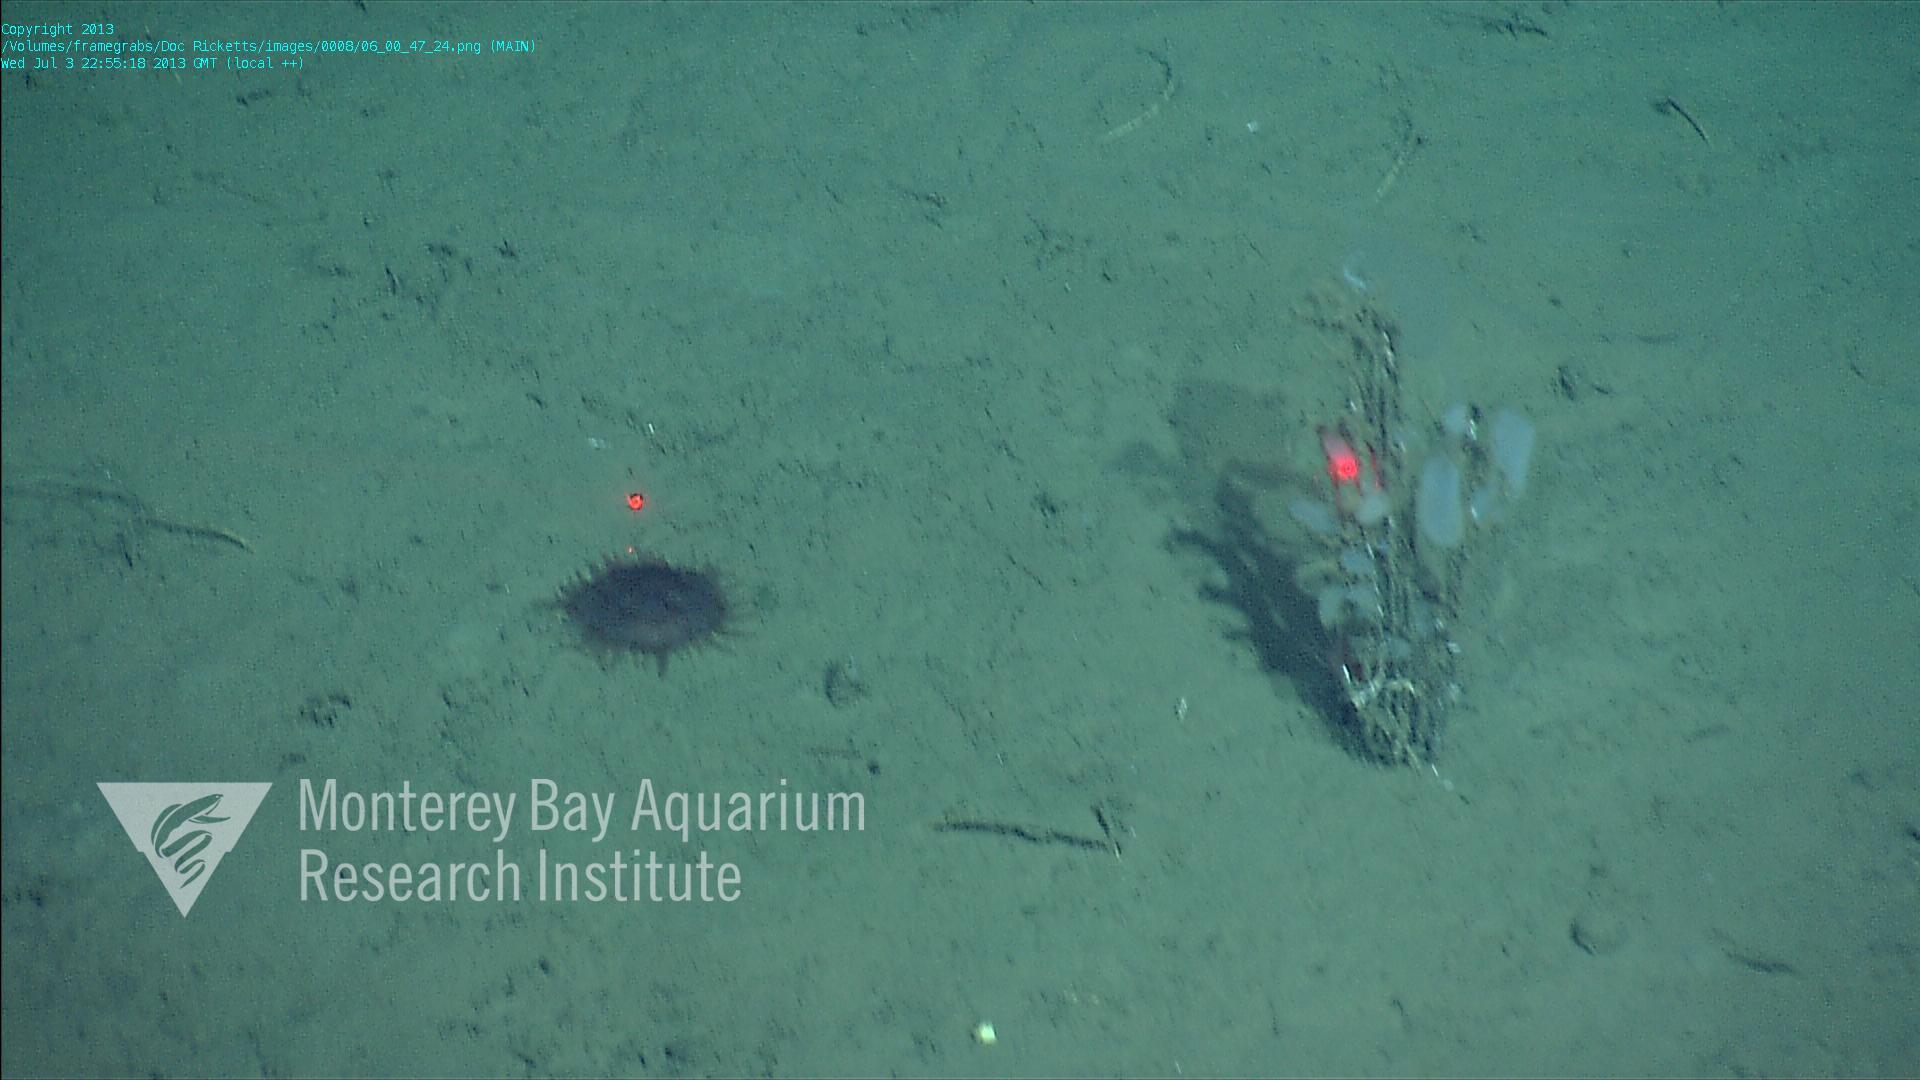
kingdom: Animalia
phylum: Porifera
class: Hexactinellida
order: Lyssacinosida
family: Rossellidae
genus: Bathydorus
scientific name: Bathydorus spinosus
